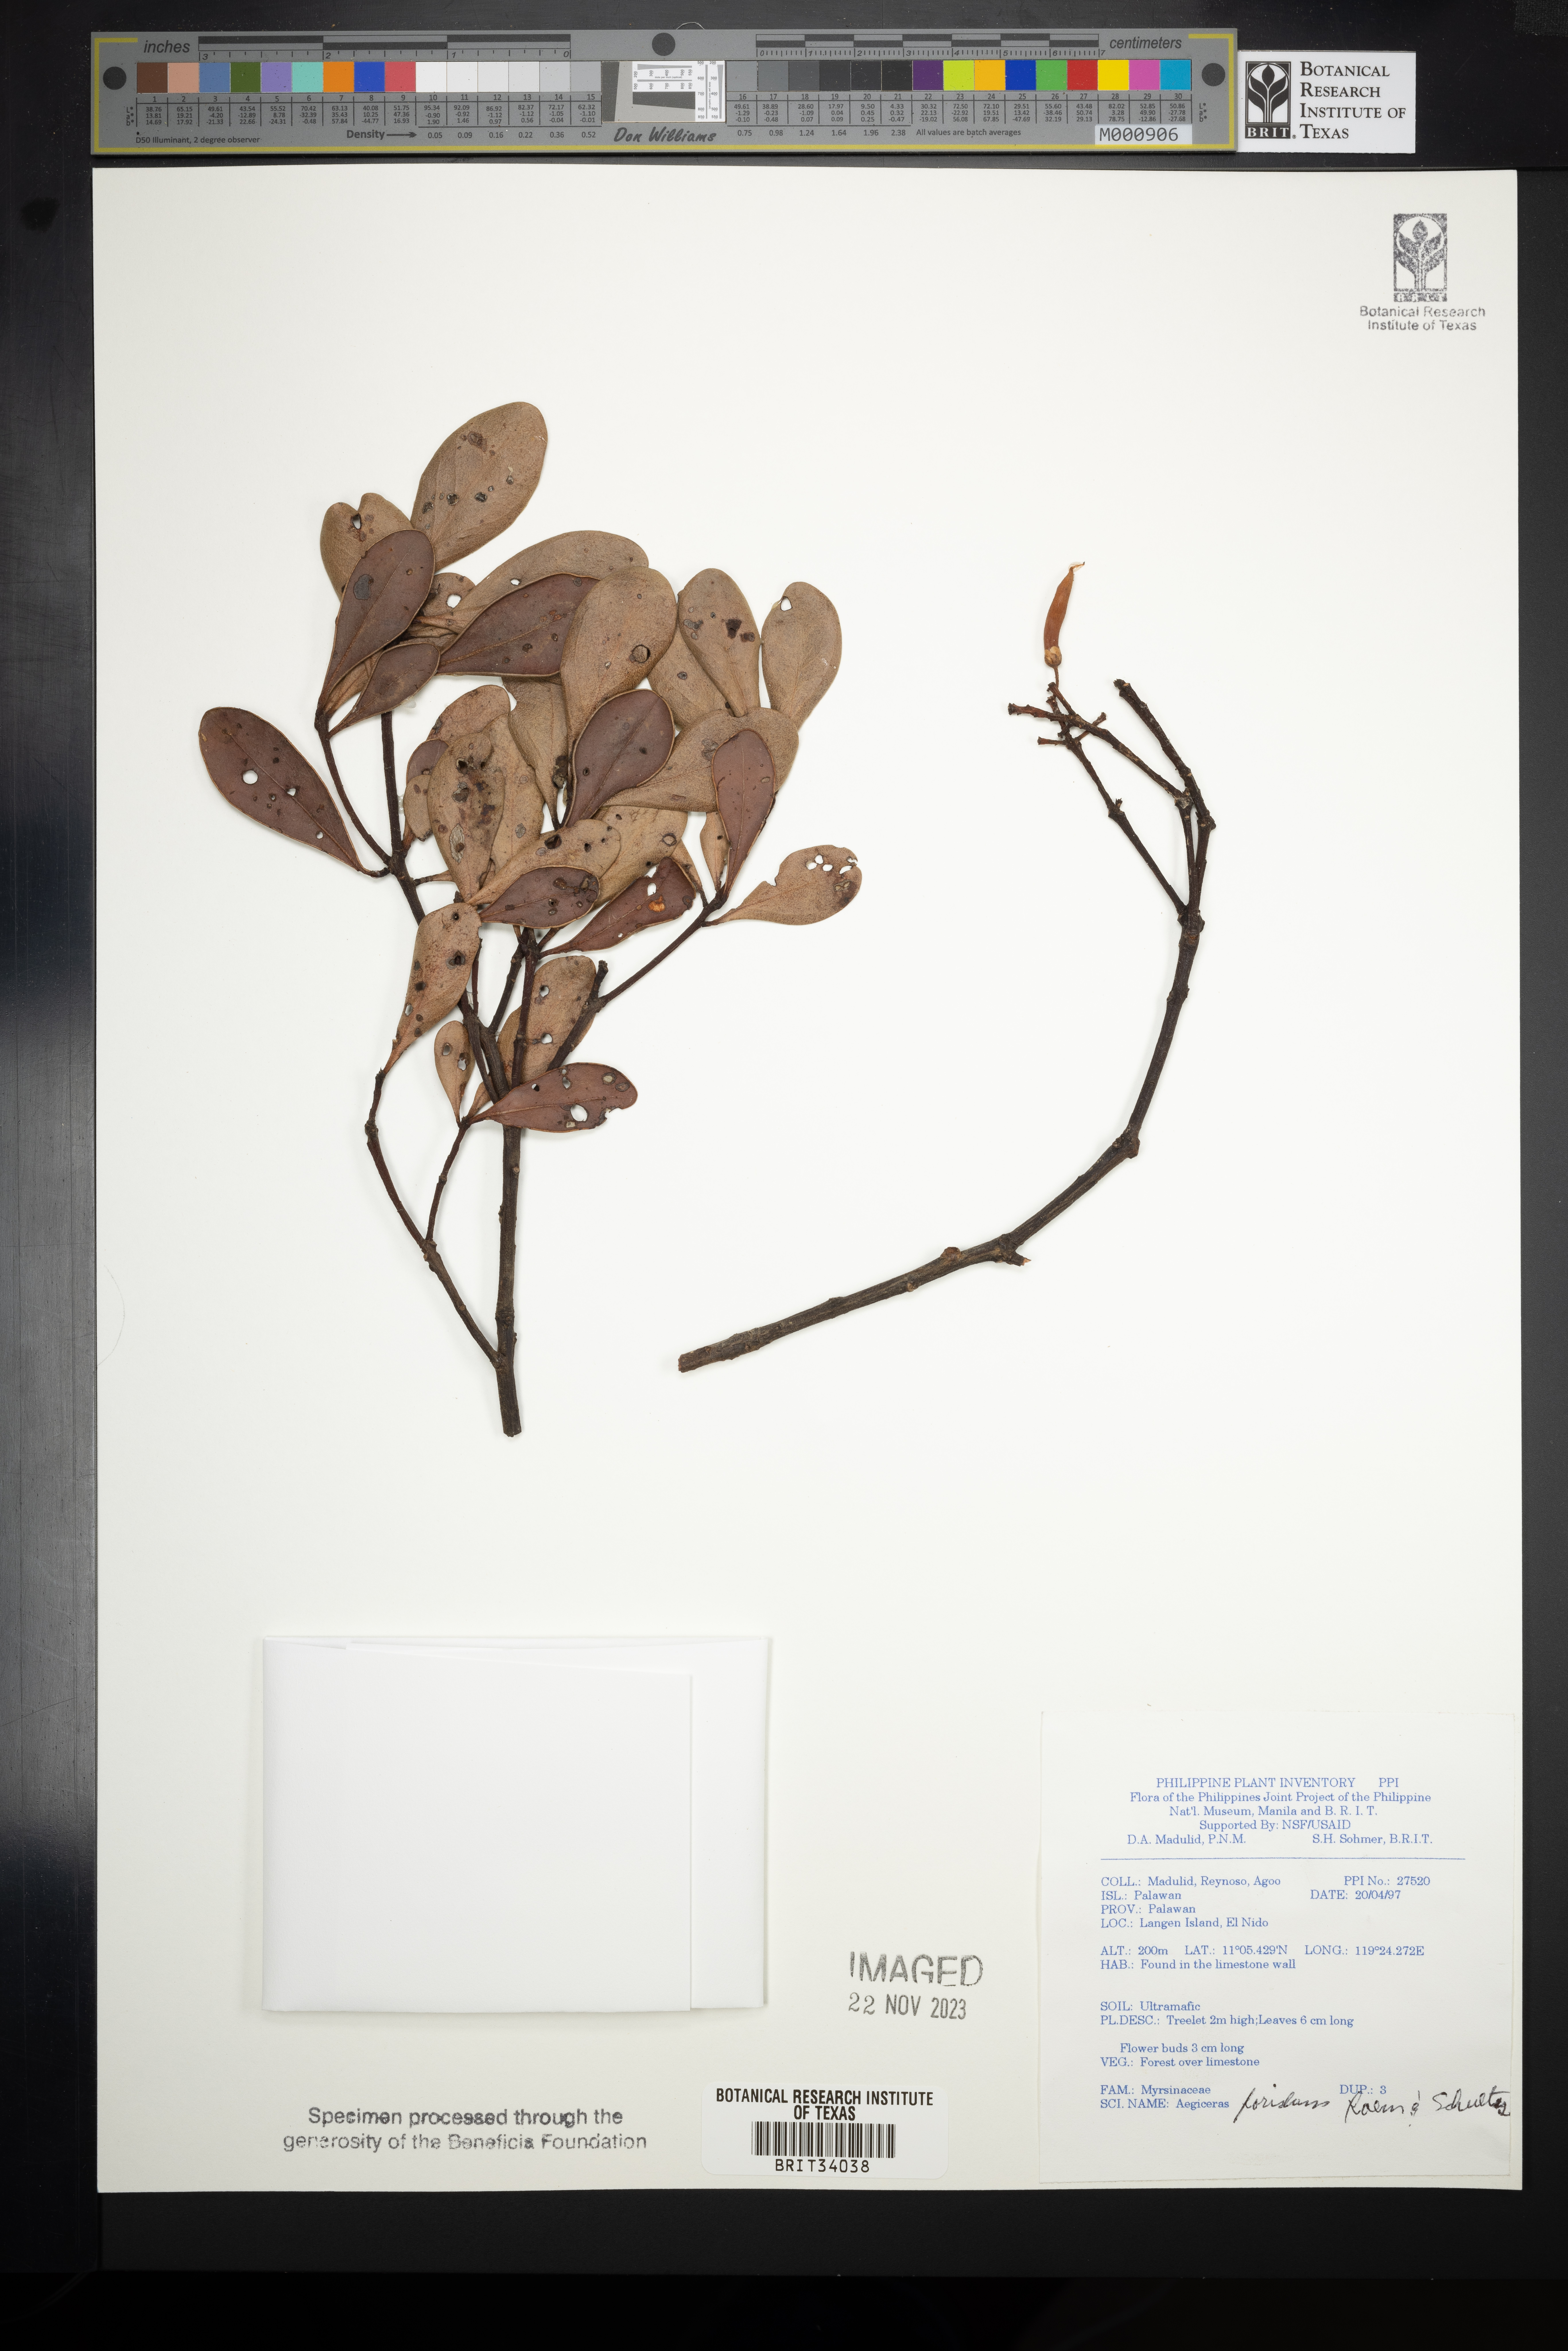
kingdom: Plantae
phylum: Tracheophyta
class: Magnoliopsida
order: Ericales
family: Primulaceae
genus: Aegiceras
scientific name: Aegiceras floridum
